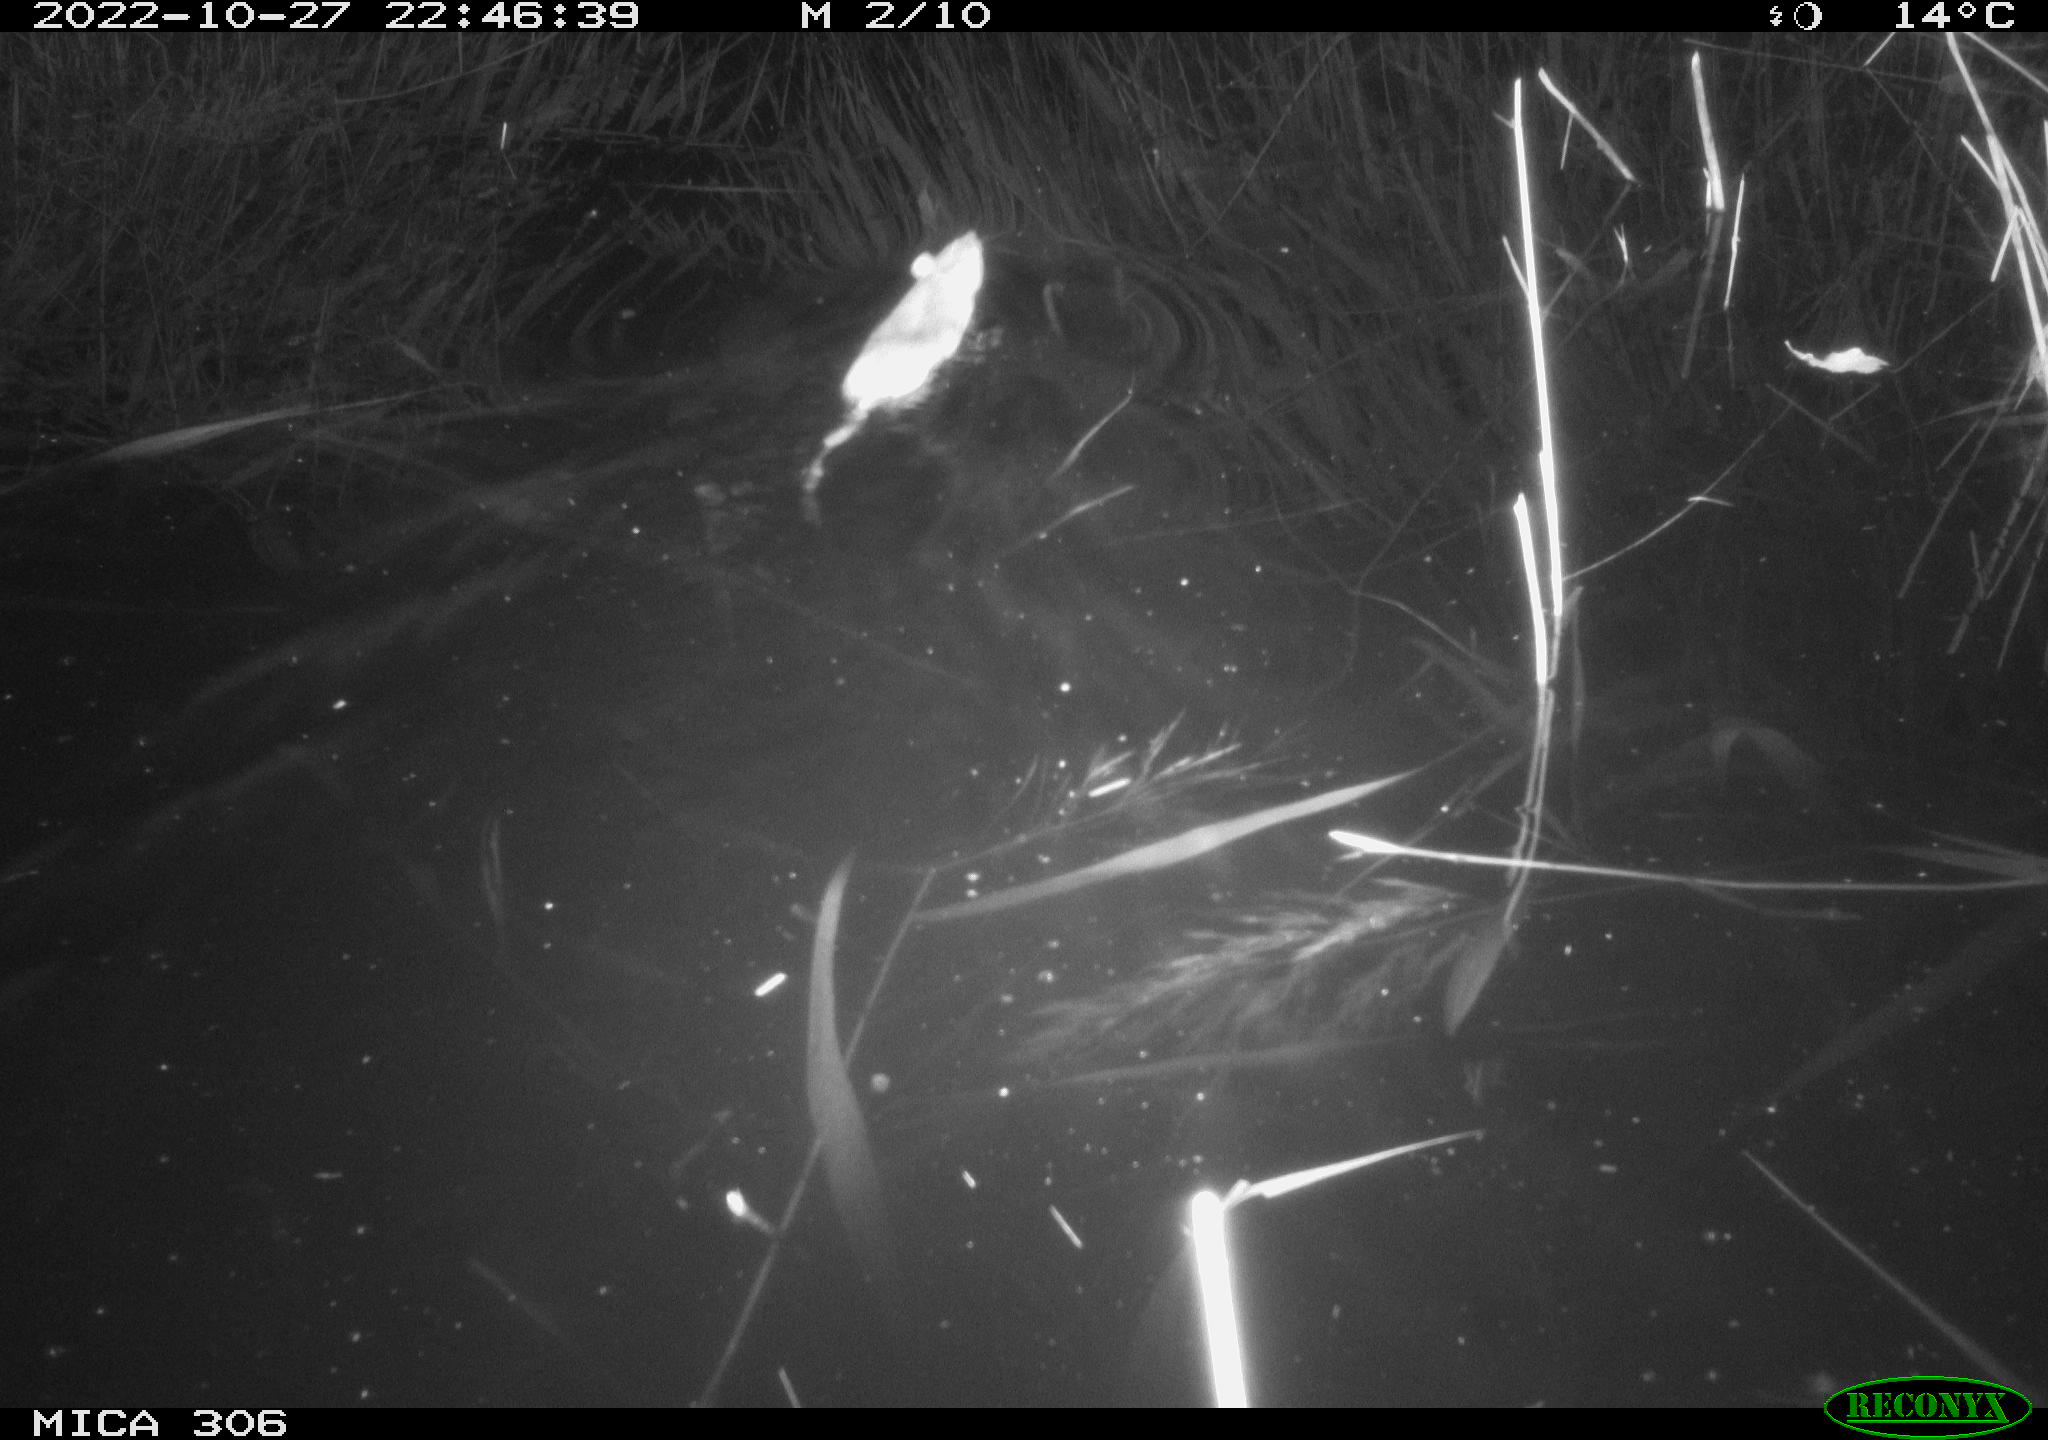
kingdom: Animalia
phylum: Chordata
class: Mammalia
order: Rodentia
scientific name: Rodentia
